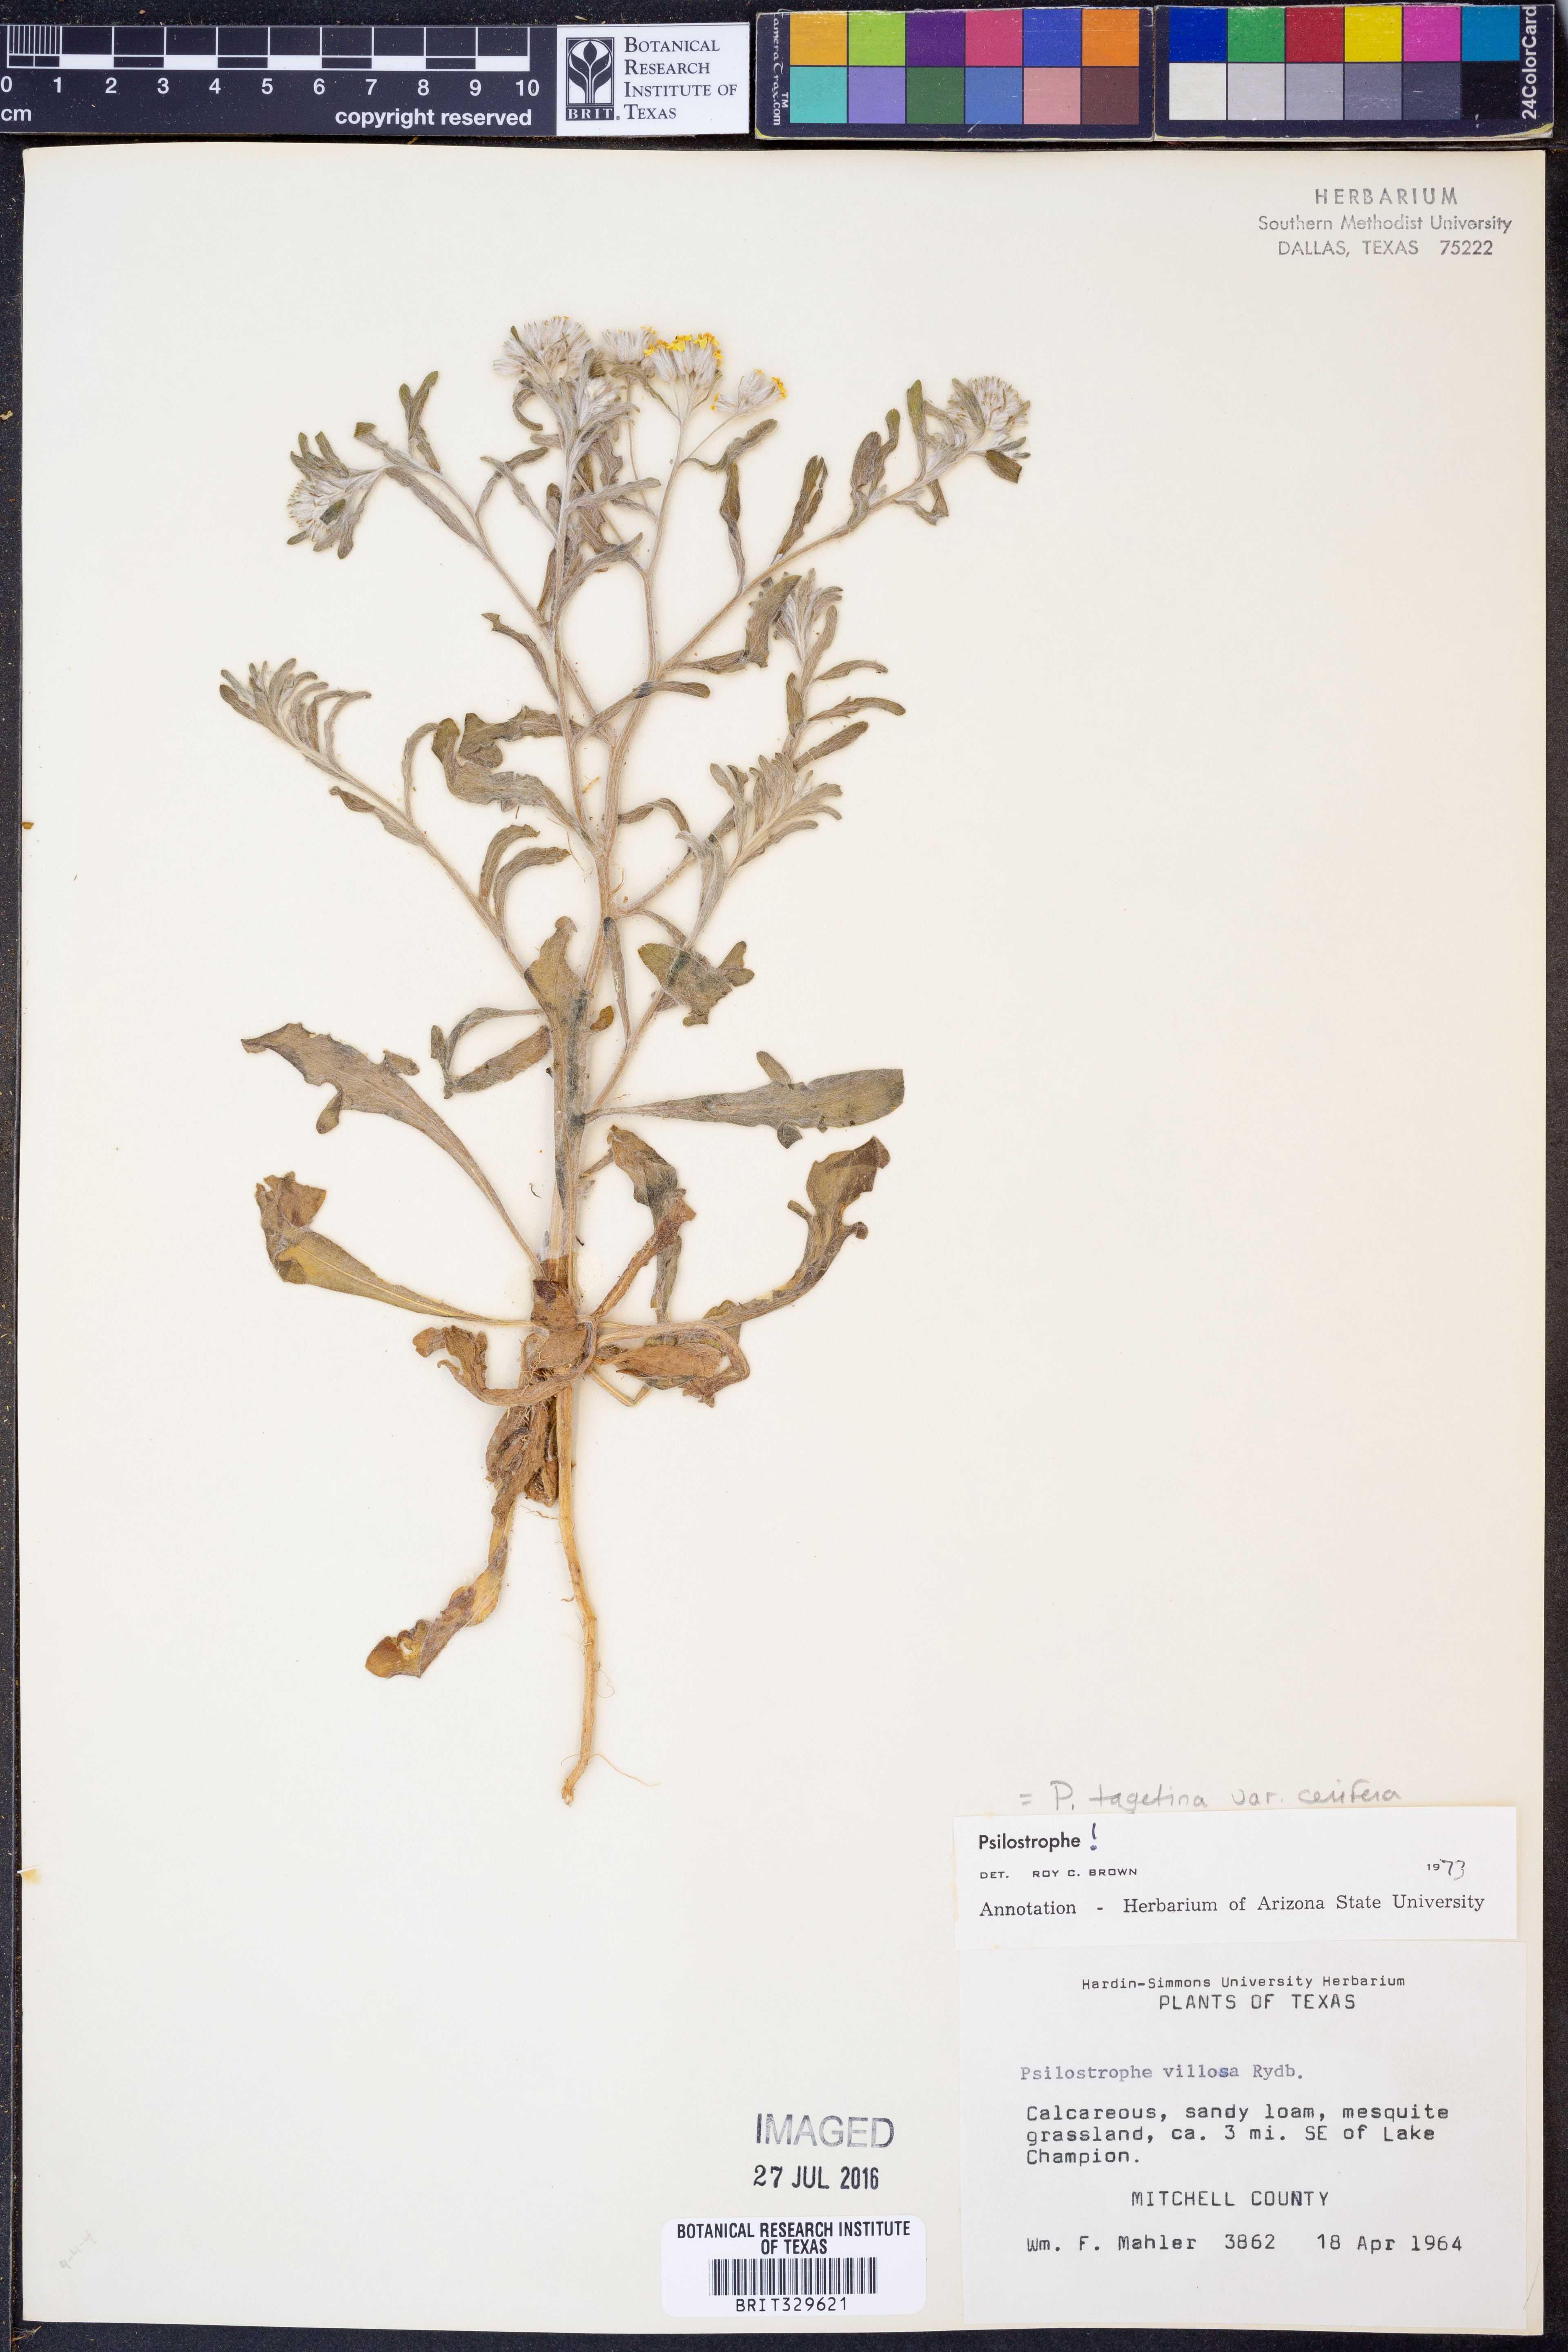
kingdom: Plantae
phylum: Tracheophyta
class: Magnoliopsida
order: Asterales
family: Asteraceae
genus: Psilostrophe
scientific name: Psilostrophe villosa
